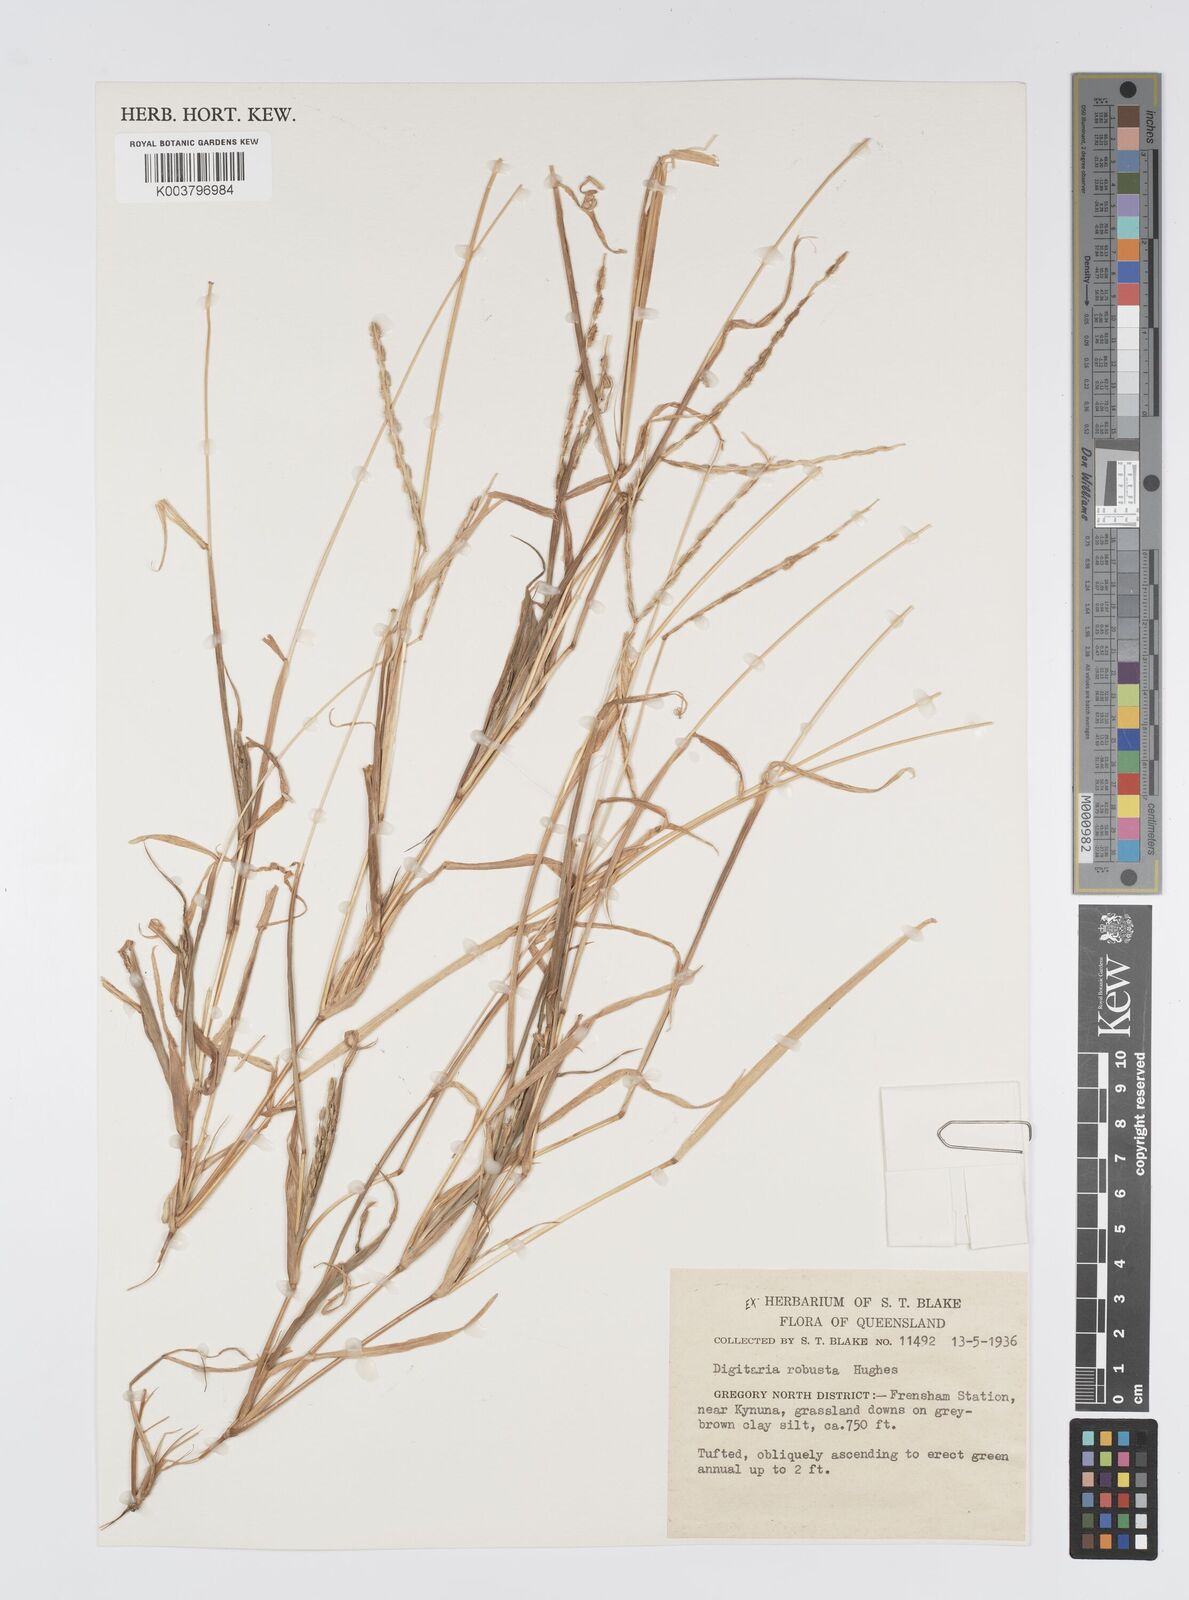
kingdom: Plantae
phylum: Tracheophyta
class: Liliopsida
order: Poales
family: Poaceae
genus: Digitaria
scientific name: Digitaria ctenantha
